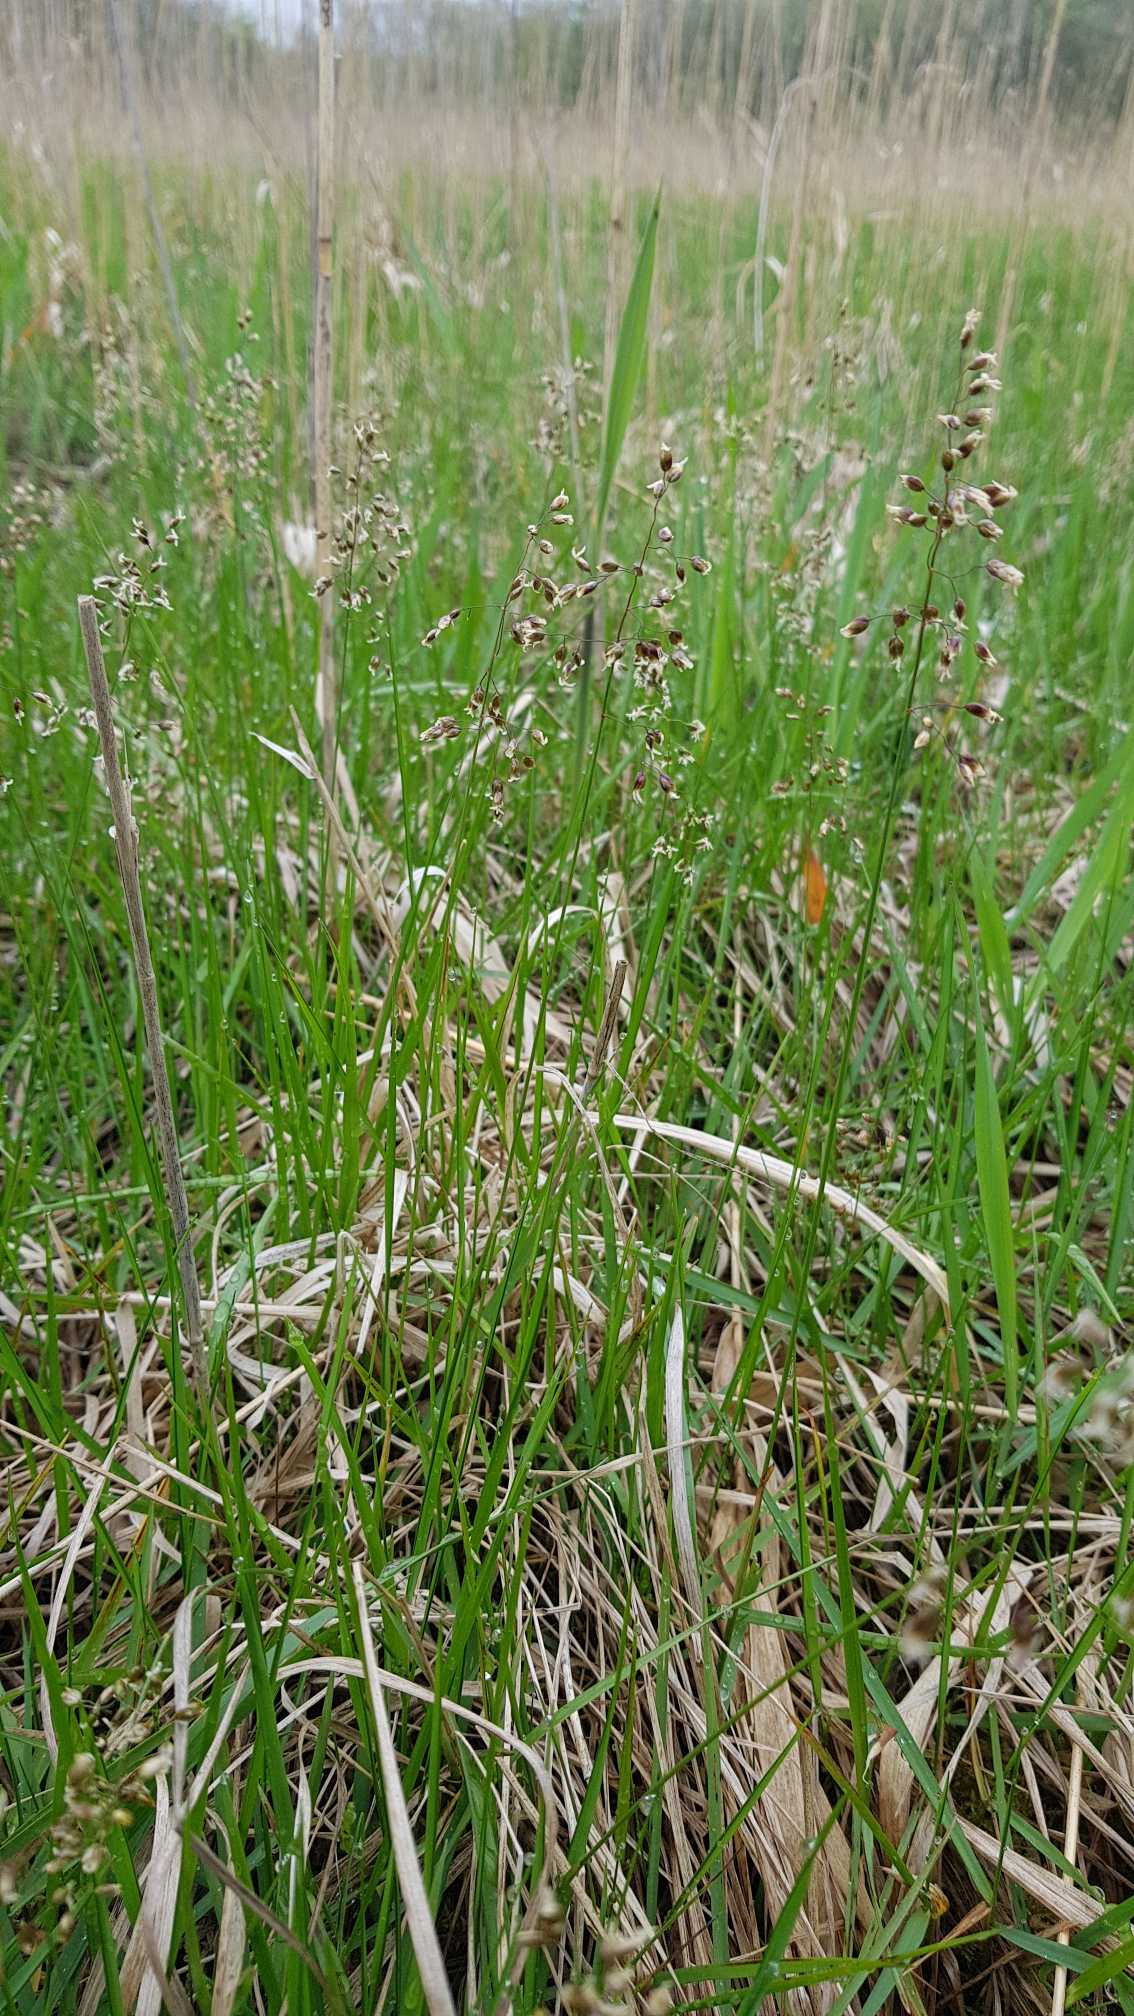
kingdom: Plantae
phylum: Tracheophyta
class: Liliopsida
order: Poales
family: Poaceae
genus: Anthoxanthum
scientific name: Anthoxanthum nitens
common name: Festgræs
